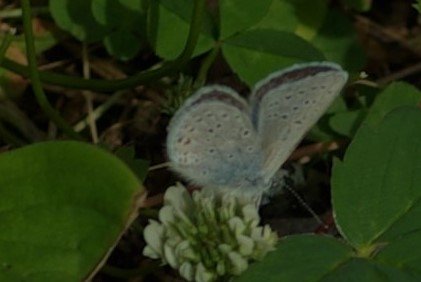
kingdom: Animalia
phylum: Arthropoda
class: Insecta
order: Lepidoptera
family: Lycaenidae
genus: Lycaeides
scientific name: Lycaeides idas
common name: Northern Blue
